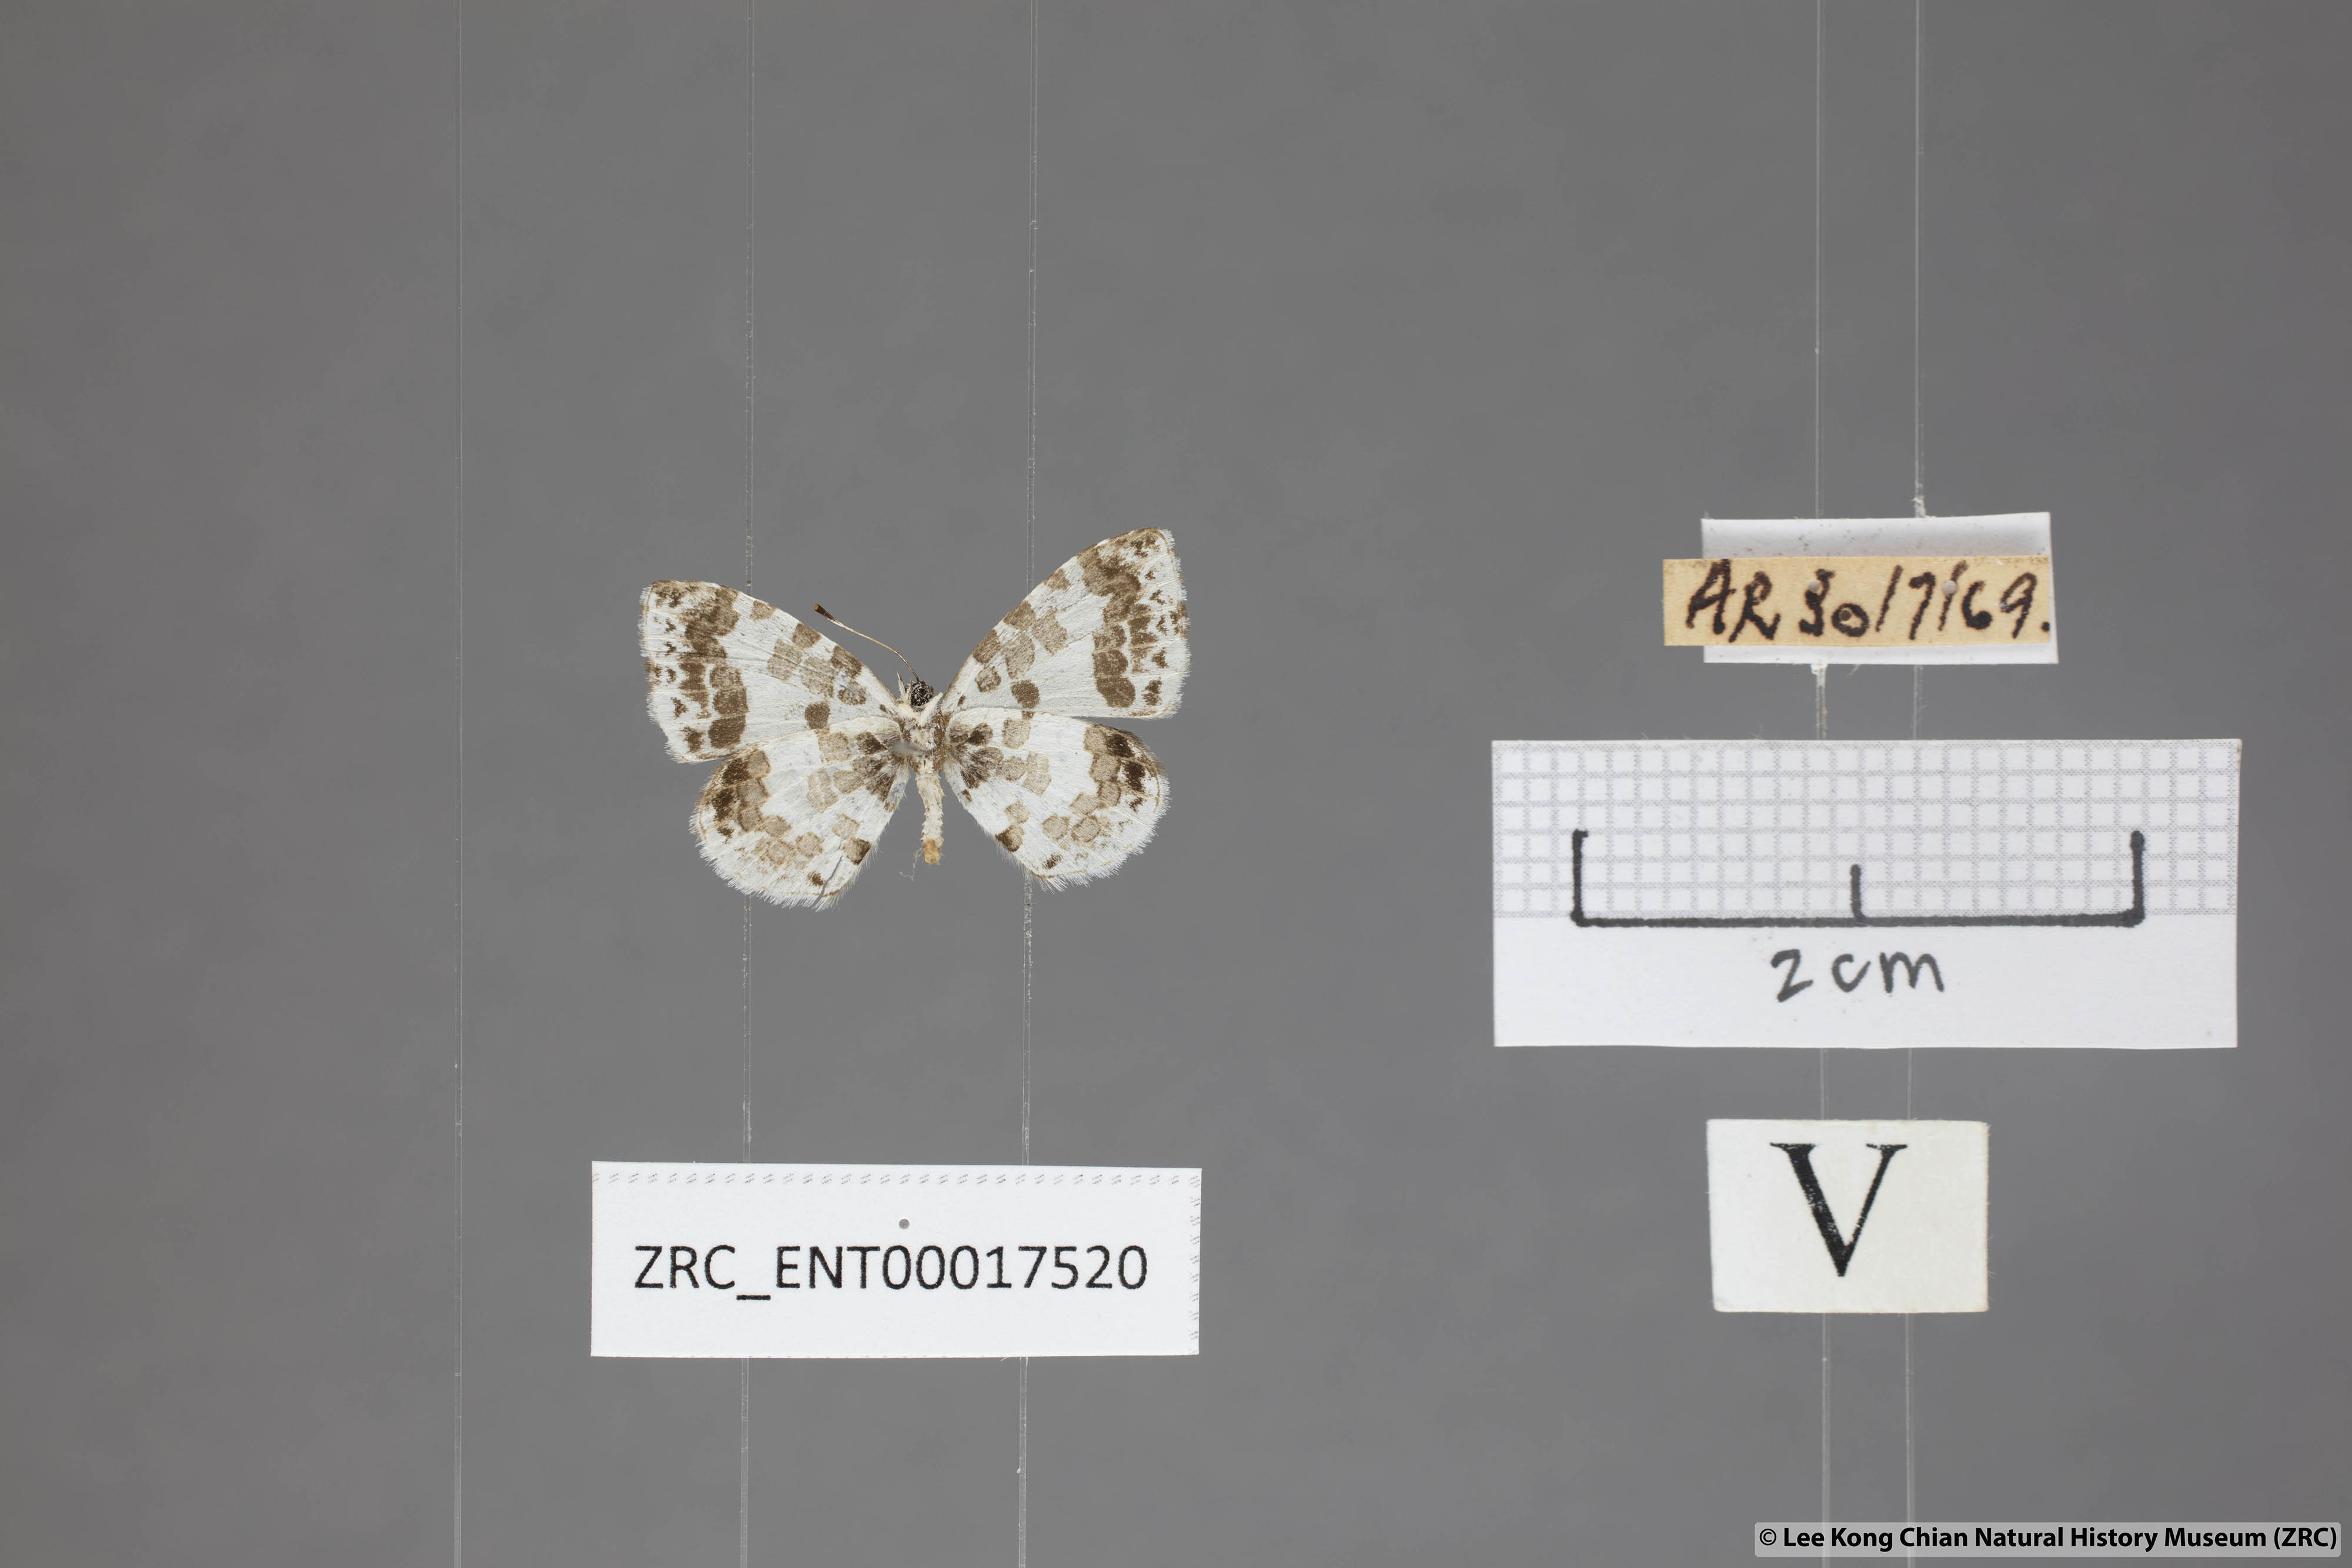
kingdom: Animalia
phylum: Arthropoda
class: Insecta
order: Lepidoptera
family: Lycaenidae
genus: Taraka
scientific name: Taraka mahanetra
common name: Lesser pierrot
